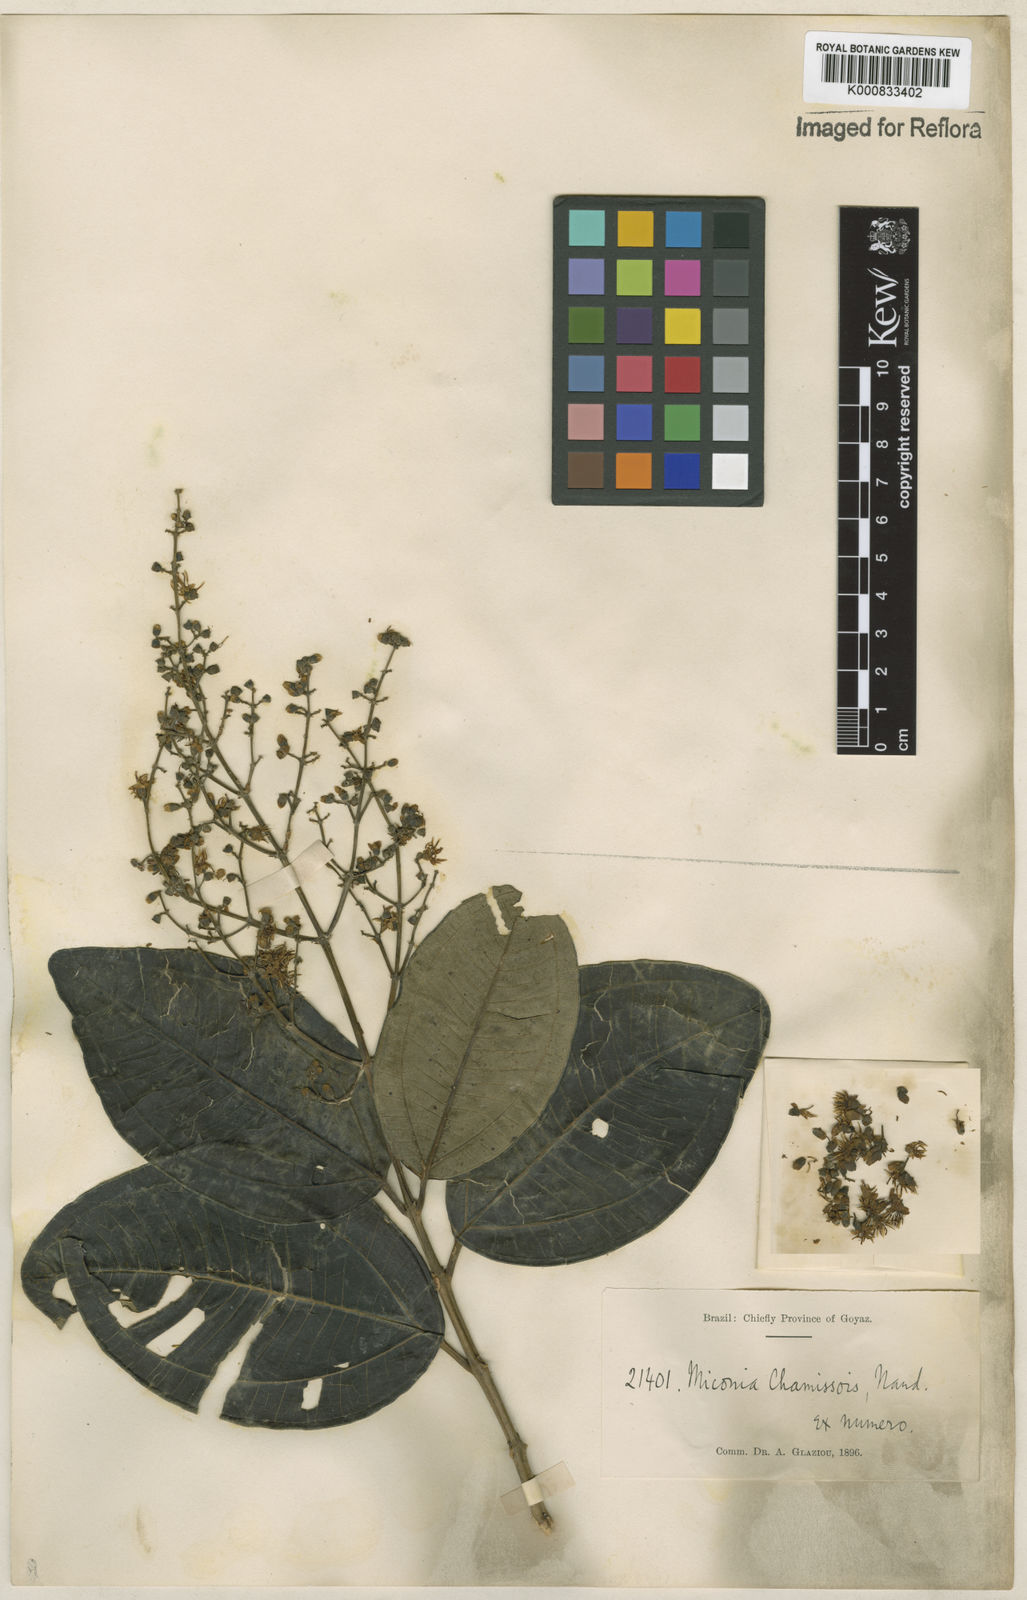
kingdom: Plantae
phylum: Tracheophyta
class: Magnoliopsida
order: Myrtales
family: Melastomataceae
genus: Miconia
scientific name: Miconia chamissois
